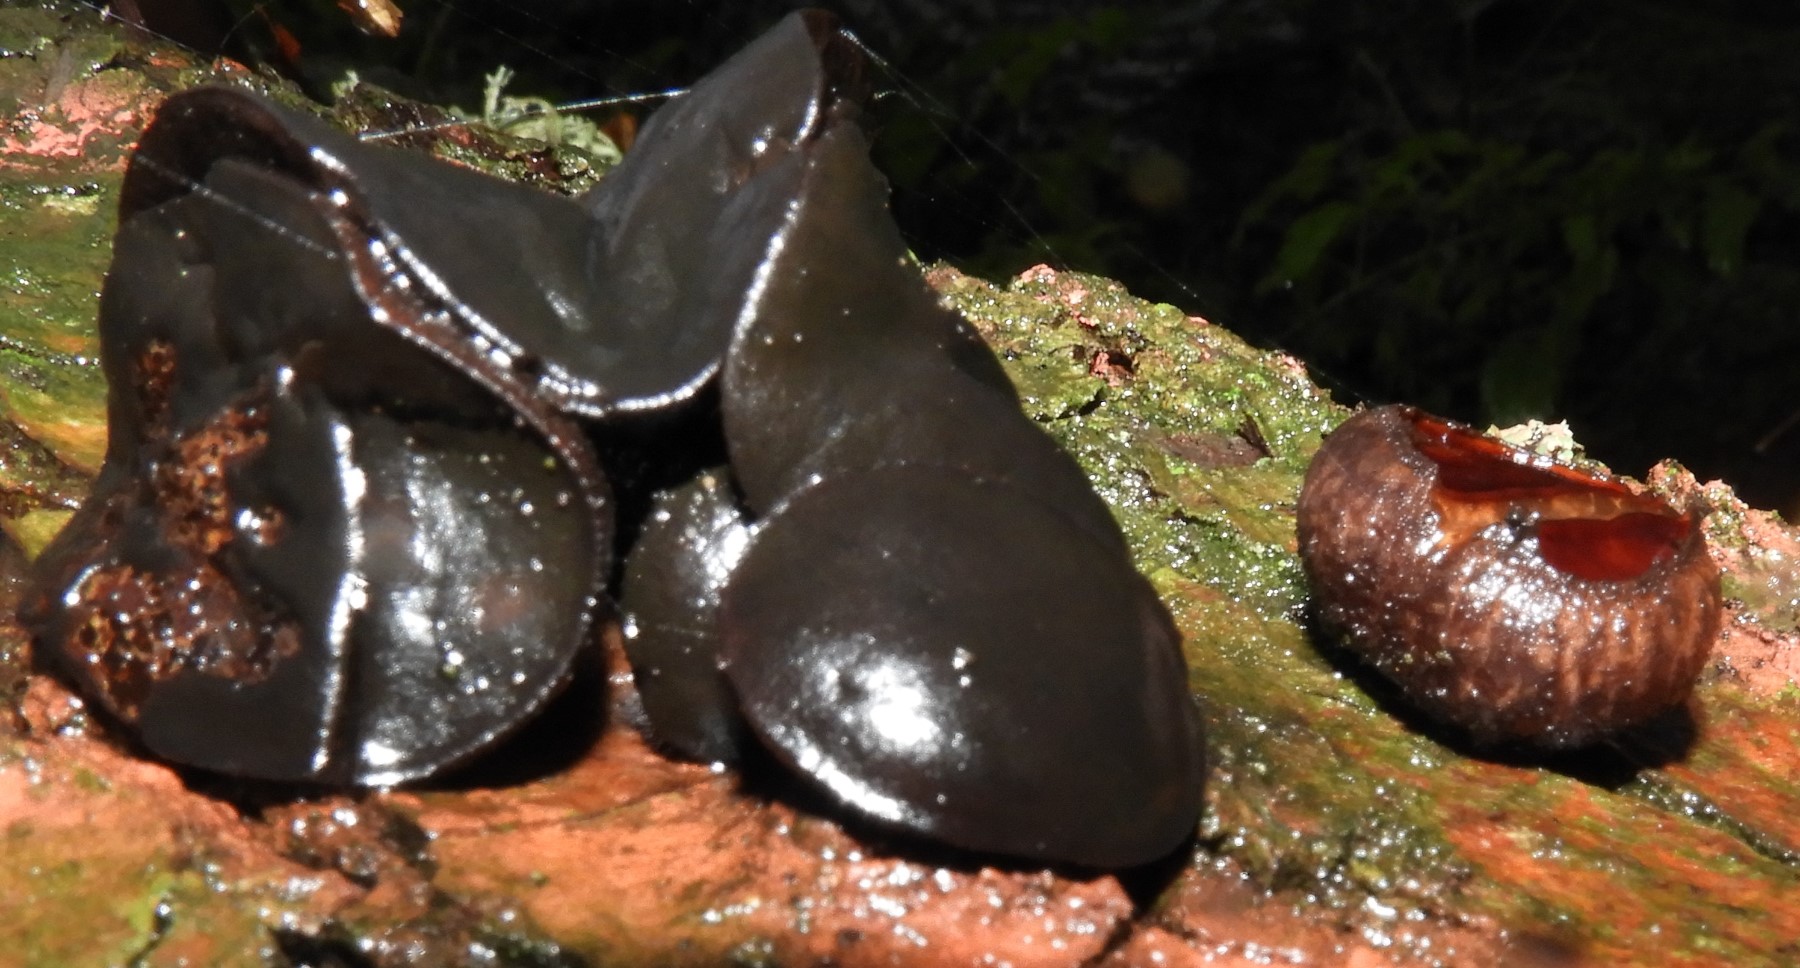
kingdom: Fungi
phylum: Ascomycota
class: Leotiomycetes
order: Phacidiales
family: Phacidiaceae
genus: Bulgaria
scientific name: Bulgaria inquinans
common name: afsmittende topsvamp
